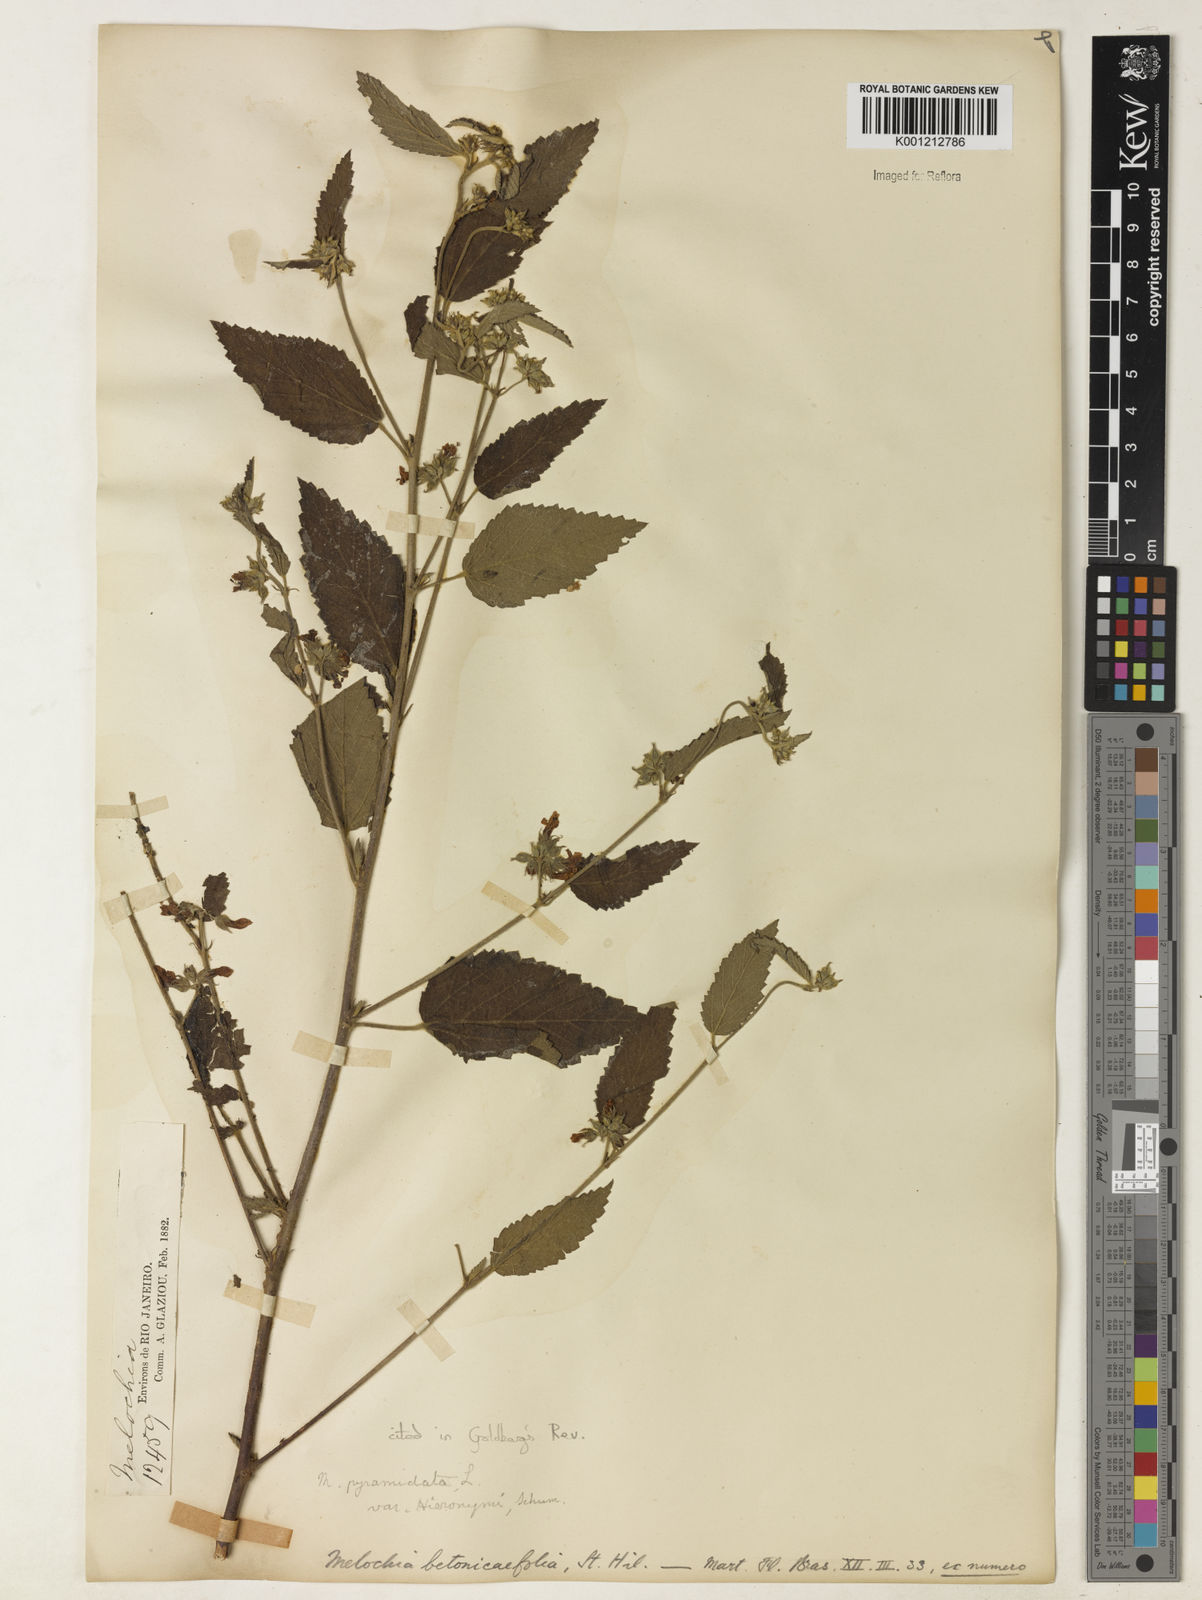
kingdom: Plantae
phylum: Tracheophyta
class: Magnoliopsida
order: Malvales
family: Malvaceae
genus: Melochia
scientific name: Melochia betonicifolia
